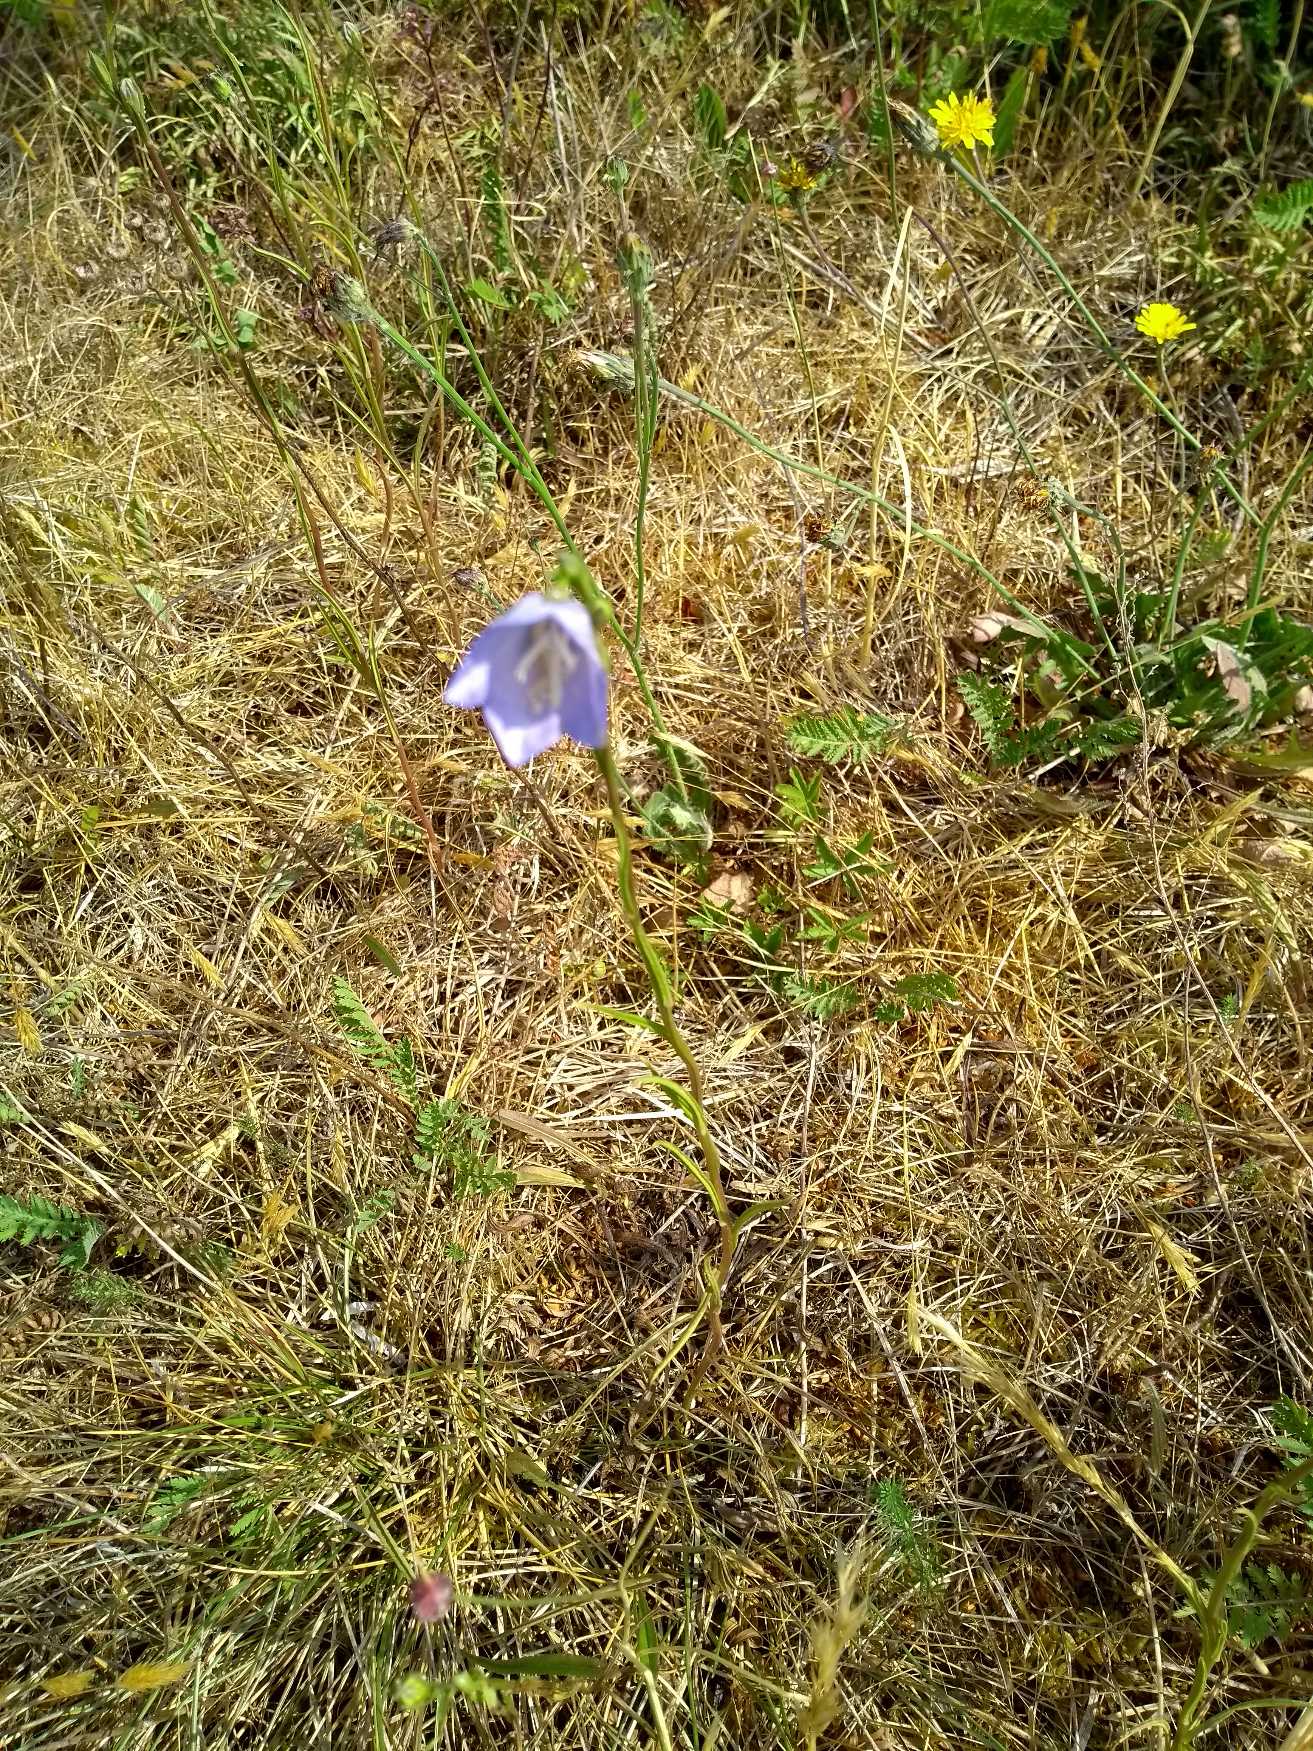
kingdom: Plantae
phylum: Tracheophyta
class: Magnoliopsida
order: Asterales
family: Campanulaceae
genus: Campanula
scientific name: Campanula rotundifolia
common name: Liden klokke
